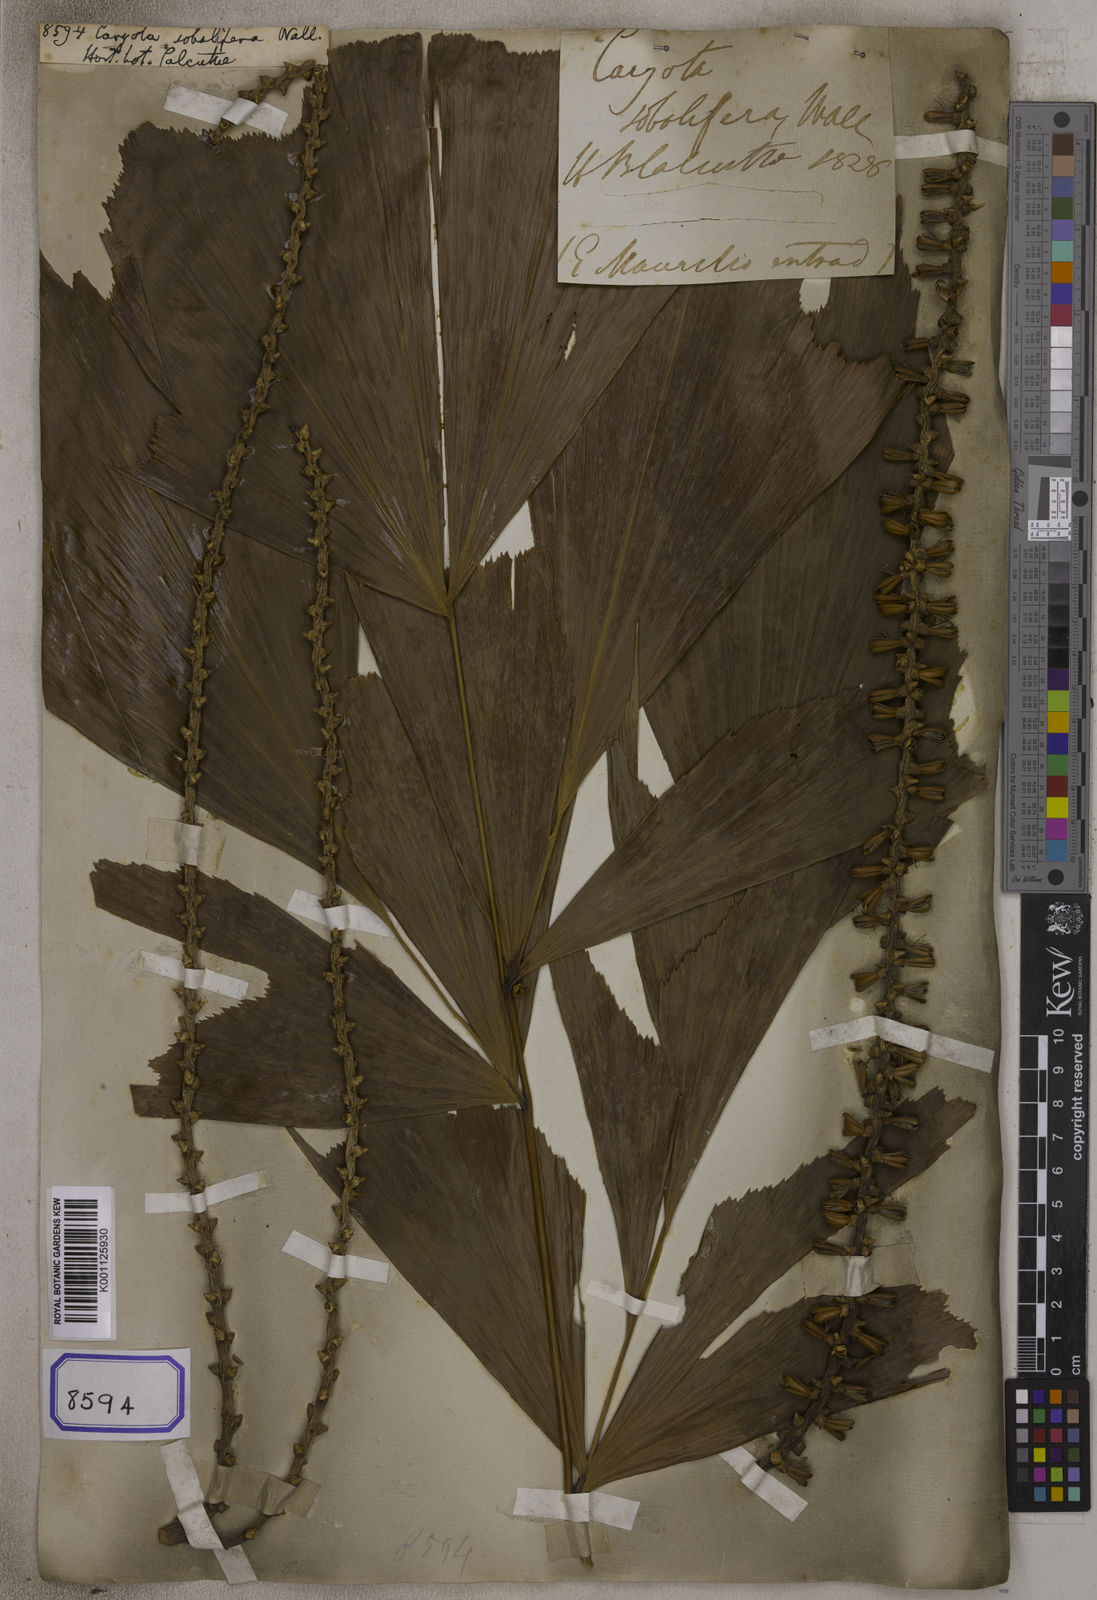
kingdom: Plantae
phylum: Tracheophyta
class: Liliopsida
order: Arecales
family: Arecaceae
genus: Caryota
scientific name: Caryota
